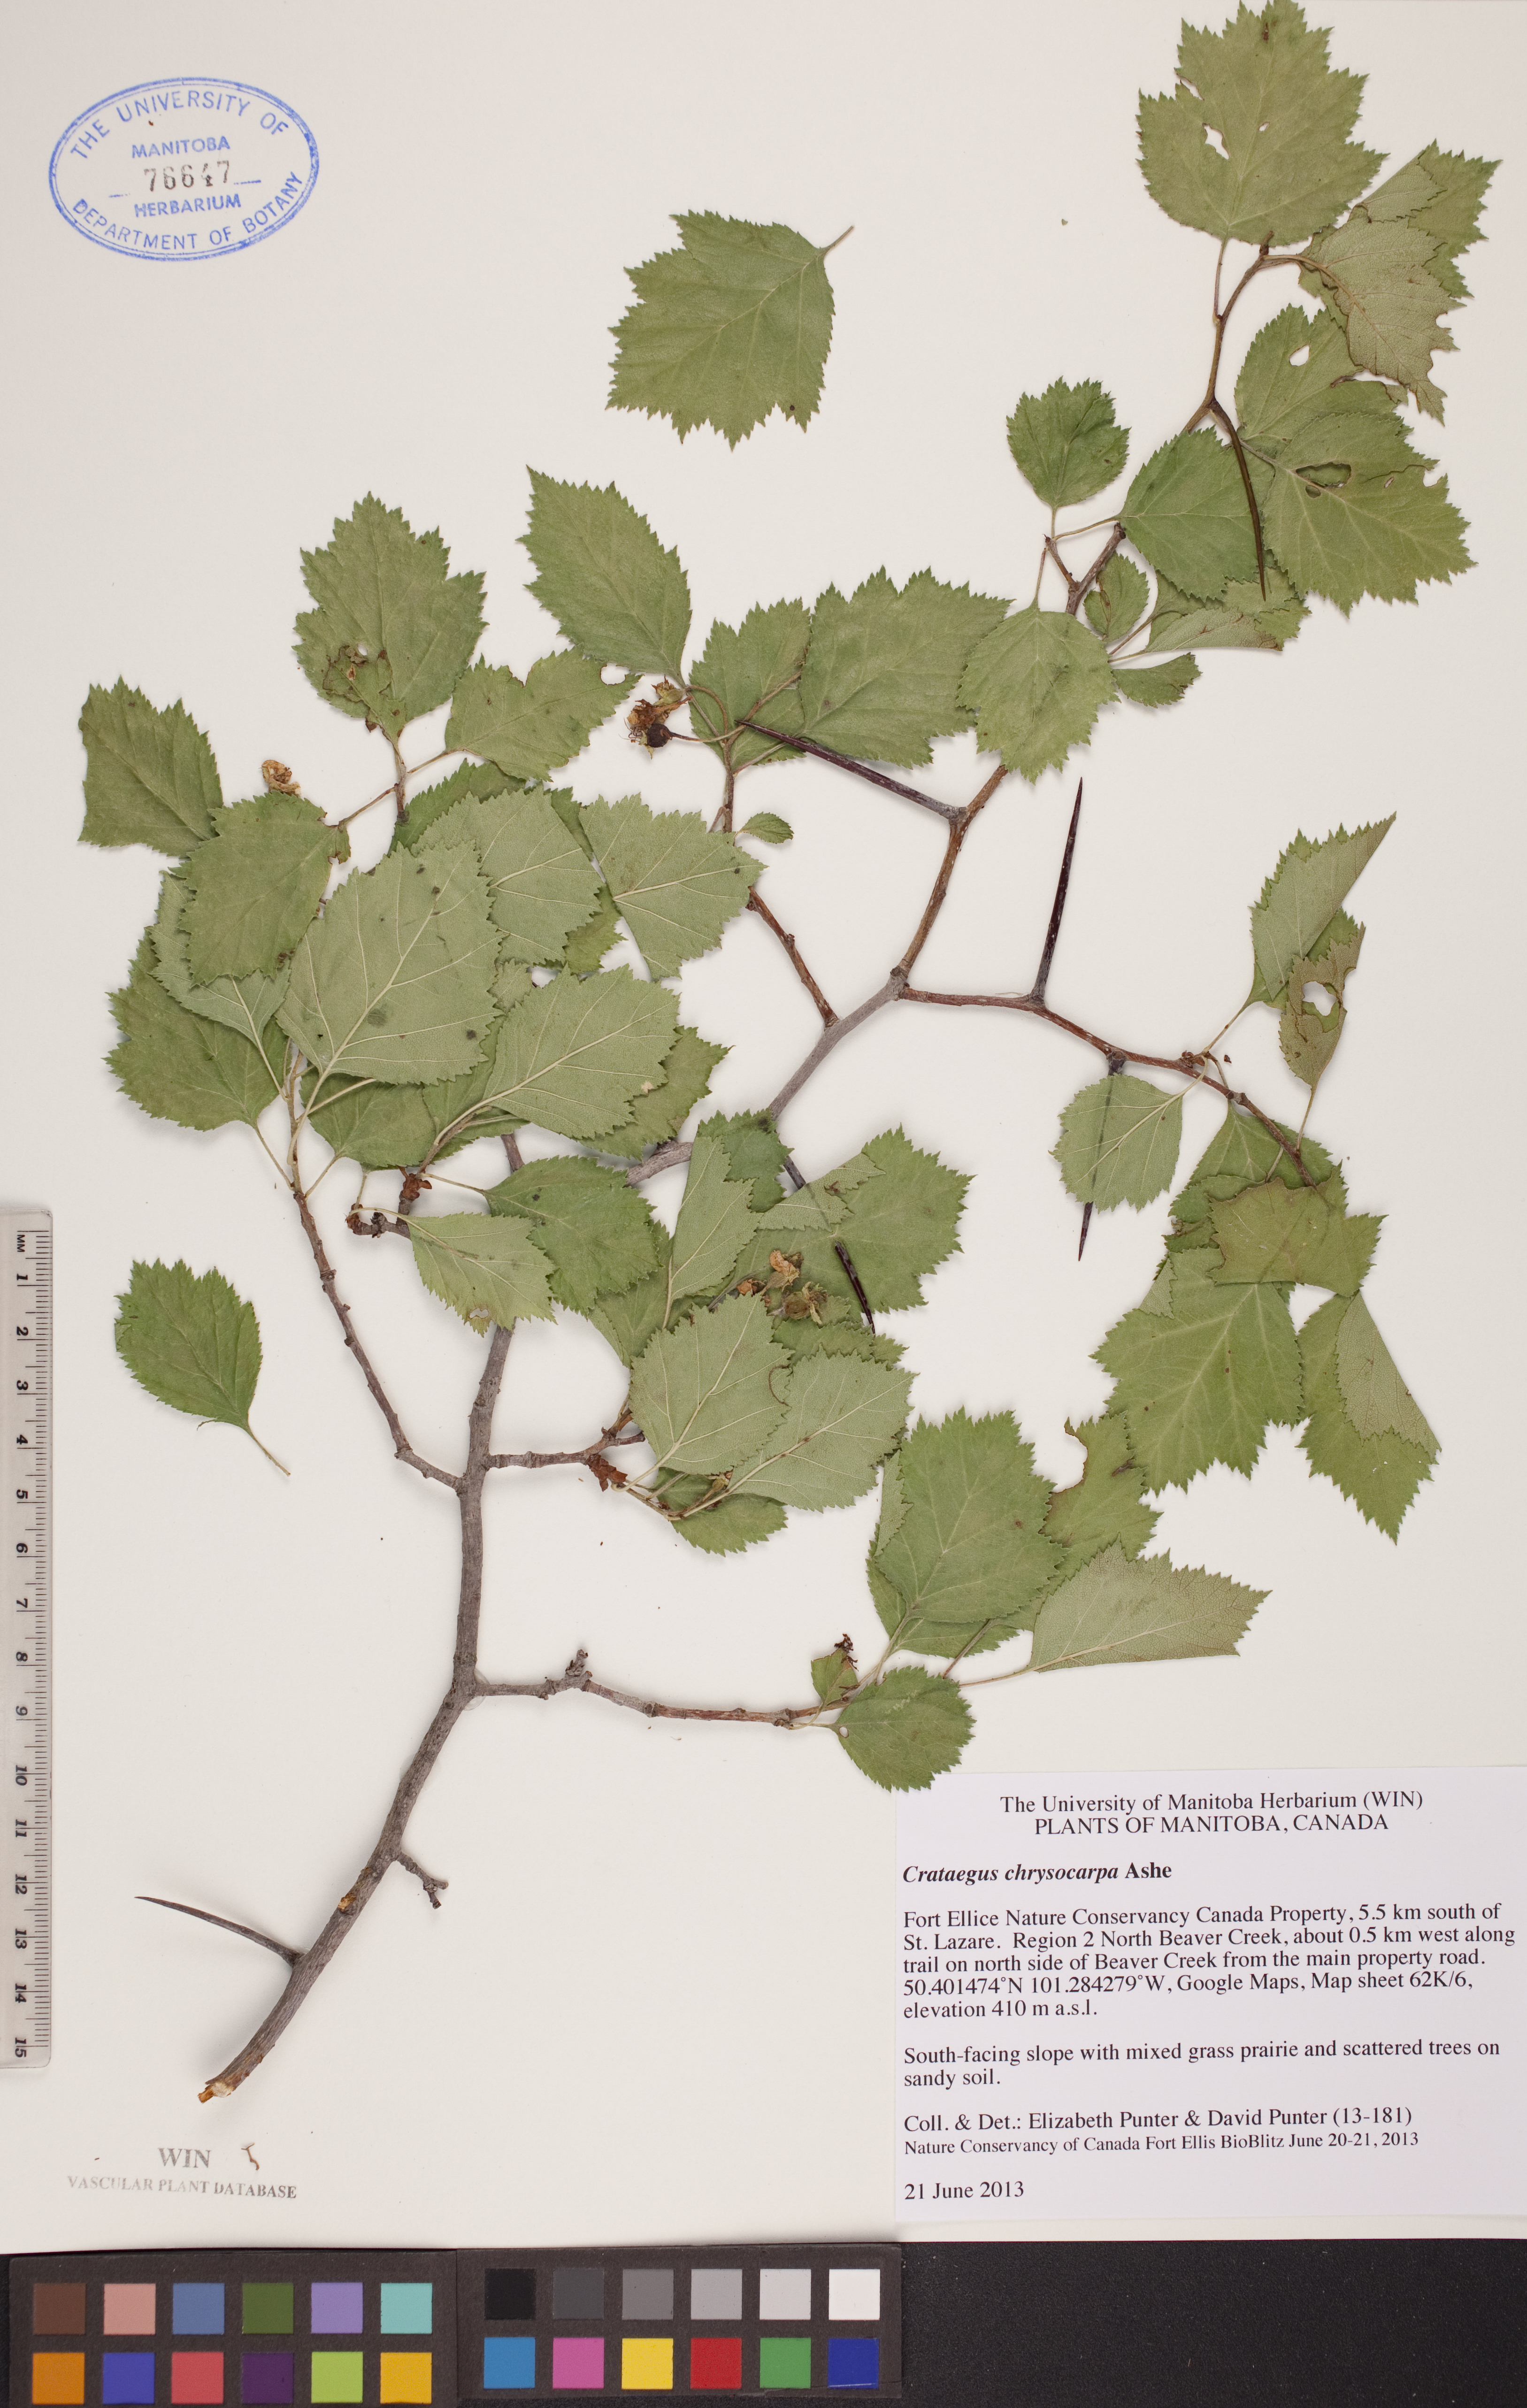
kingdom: Plantae
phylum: Tracheophyta
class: Magnoliopsida
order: Rosales
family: Rosaceae
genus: Crataegus
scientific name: Crataegus chrysocarpa
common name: Fire-berry hawthorn
